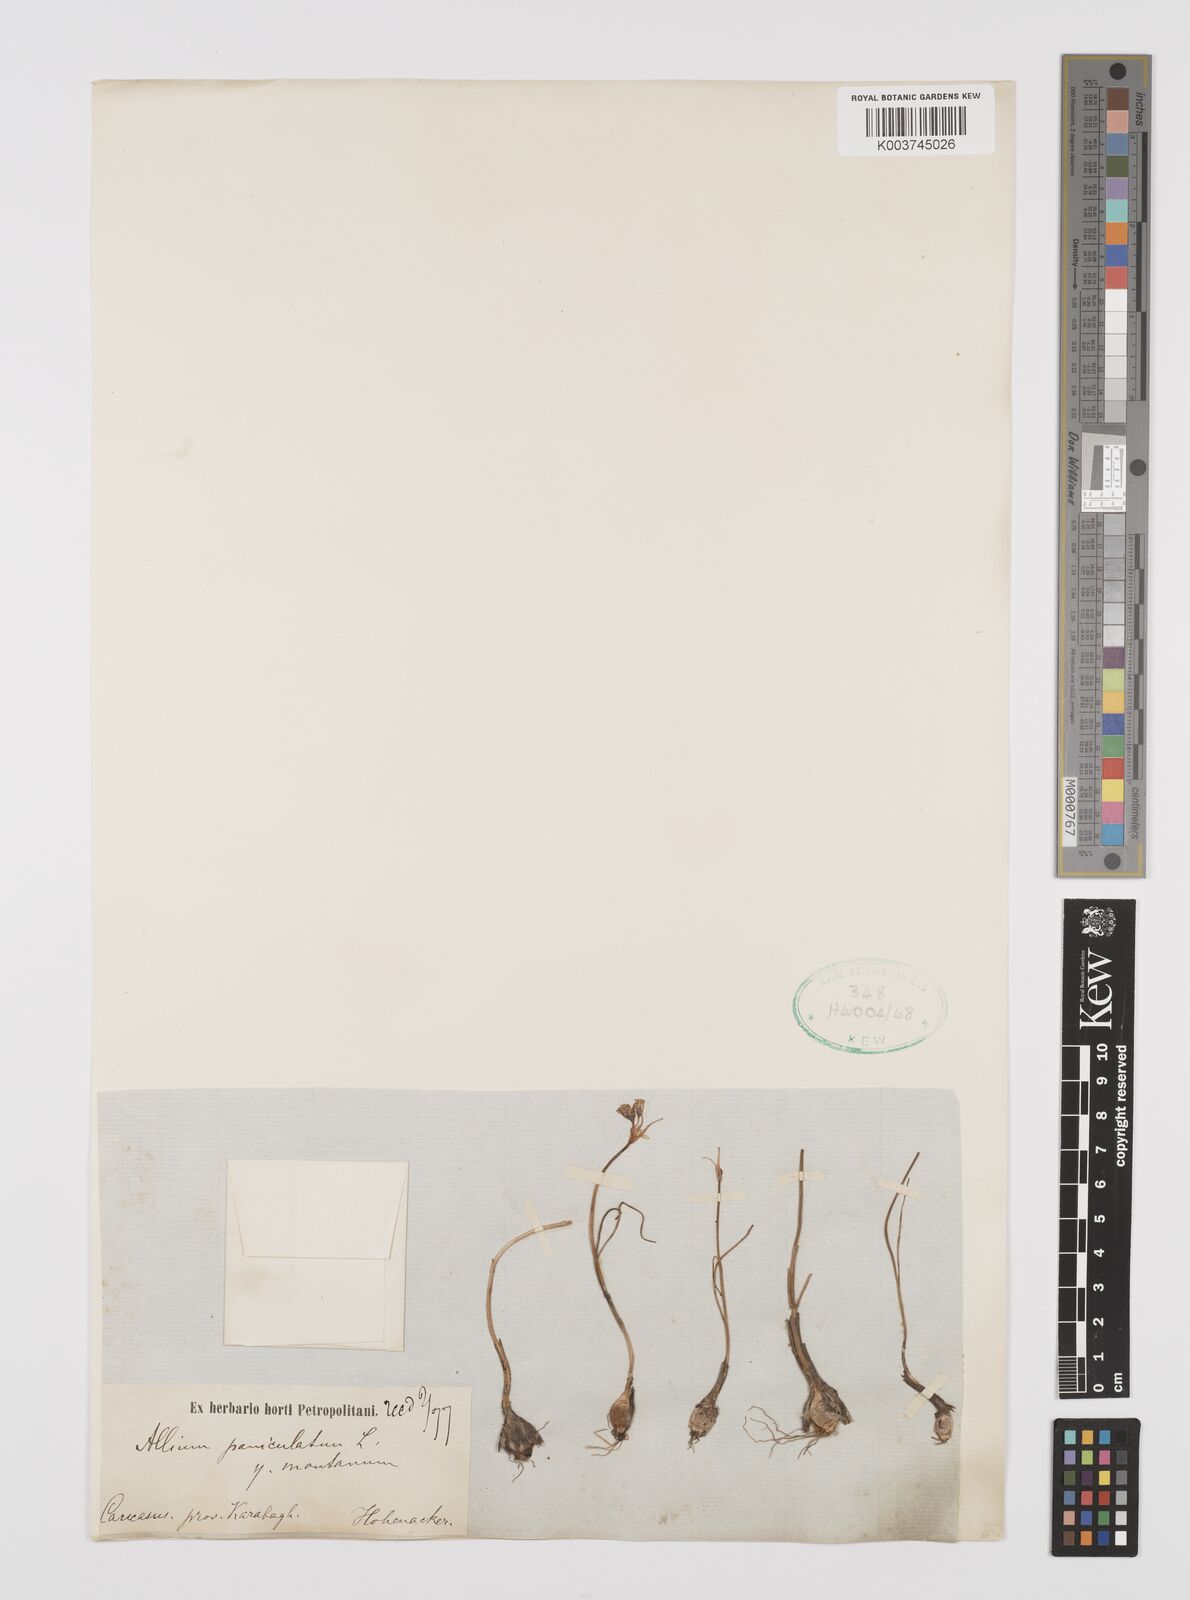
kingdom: Plantae
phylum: Tracheophyta
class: Liliopsida
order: Asparagales
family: Amaryllidaceae
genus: Allium
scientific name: Allium rupestre
